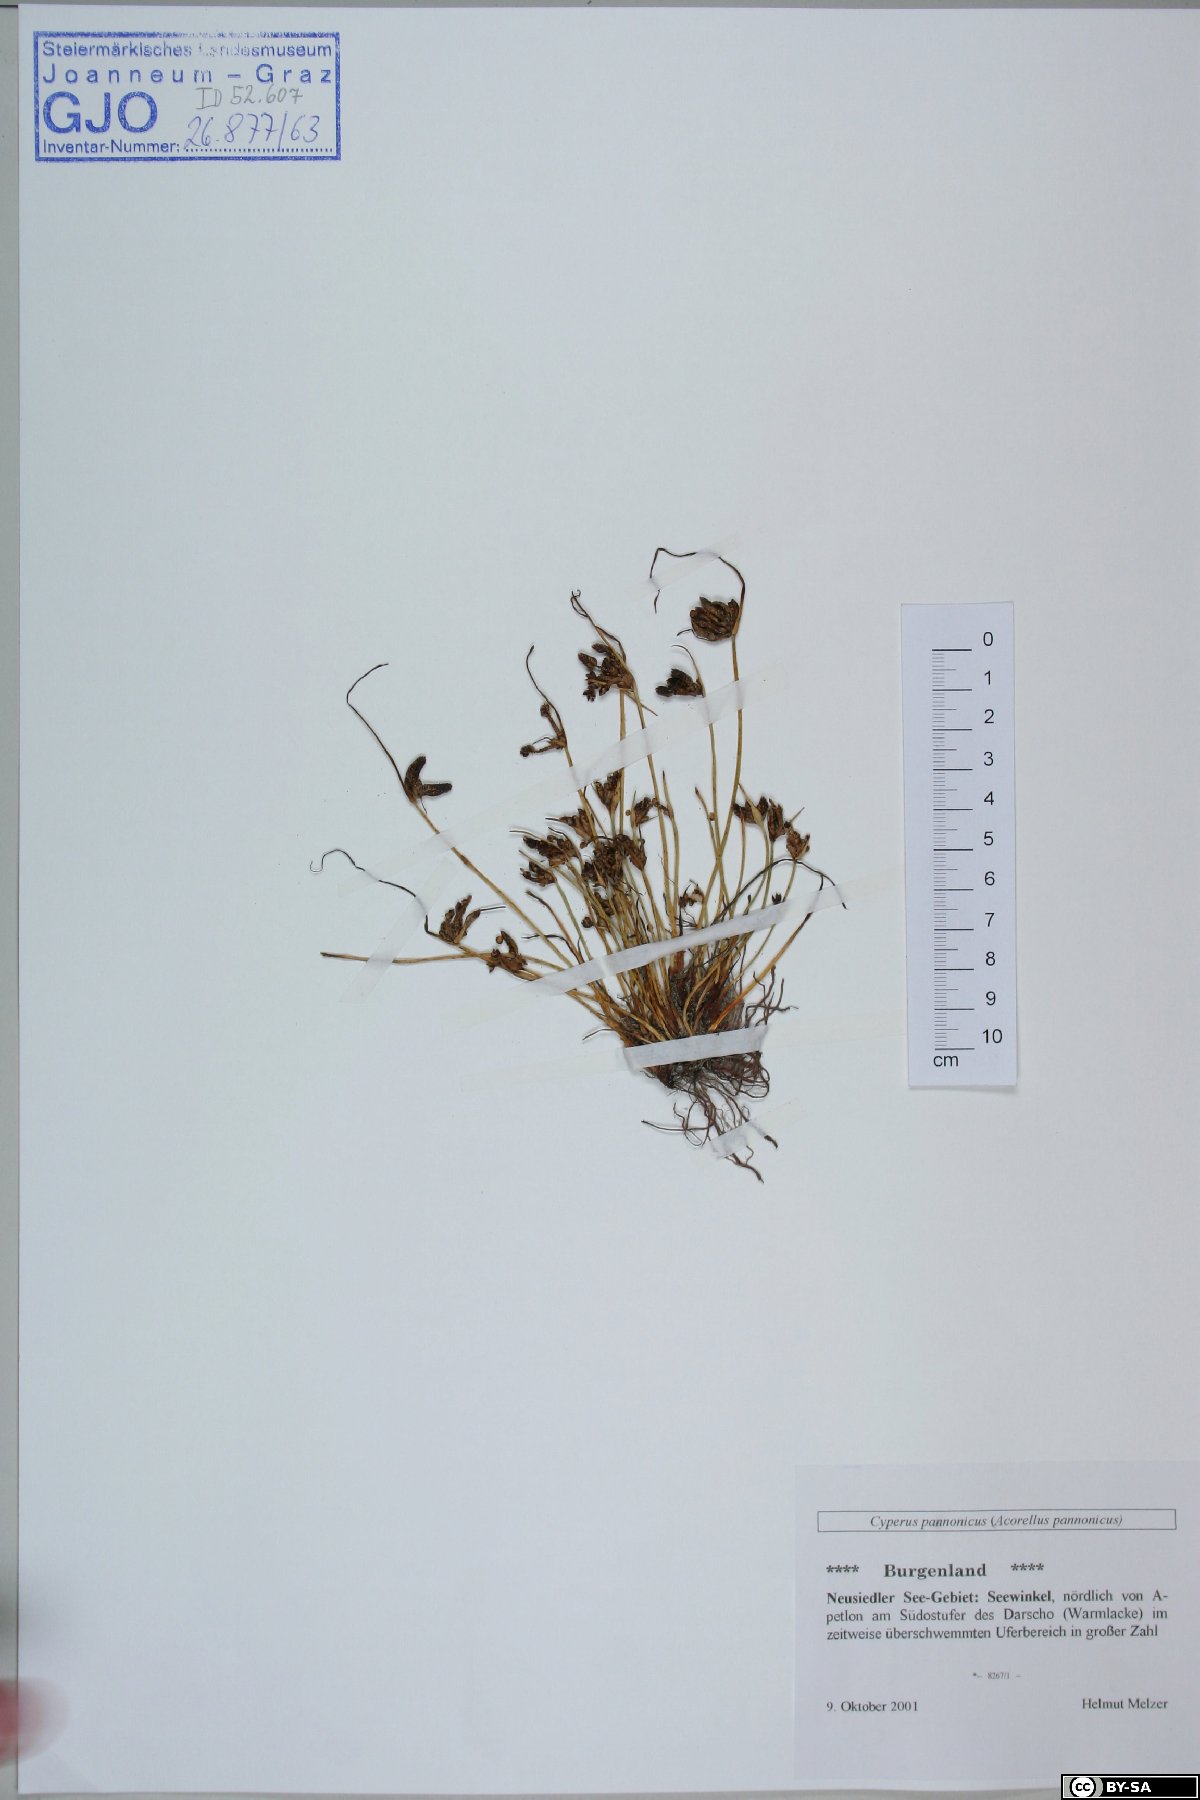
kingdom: Plantae
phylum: Tracheophyta
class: Liliopsida
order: Poales
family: Cyperaceae
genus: Cyperus
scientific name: Cyperus pannonicus
